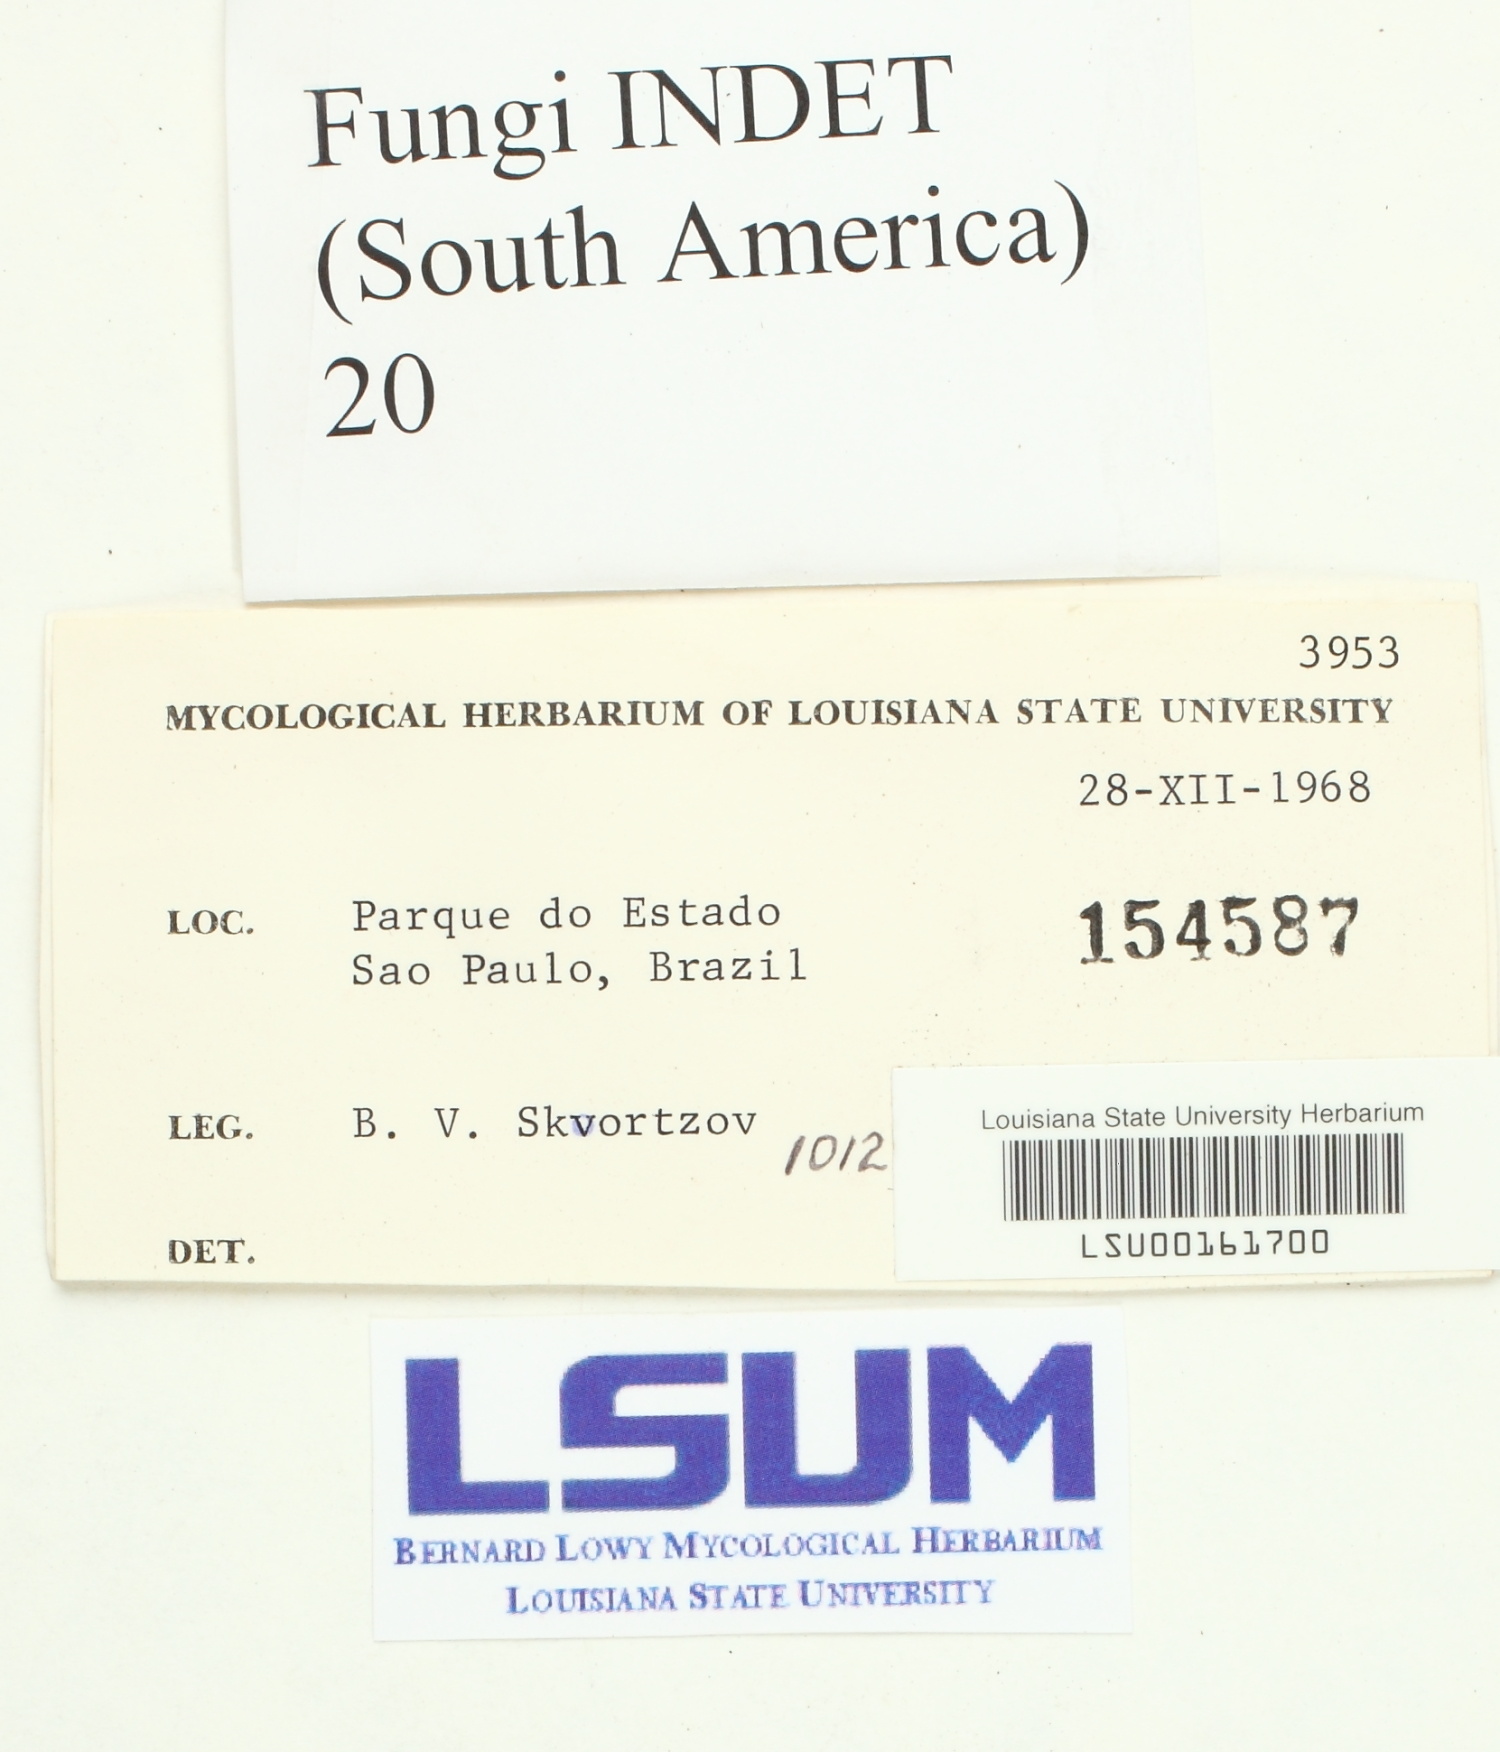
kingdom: Fungi
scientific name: Fungi
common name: Fungi
